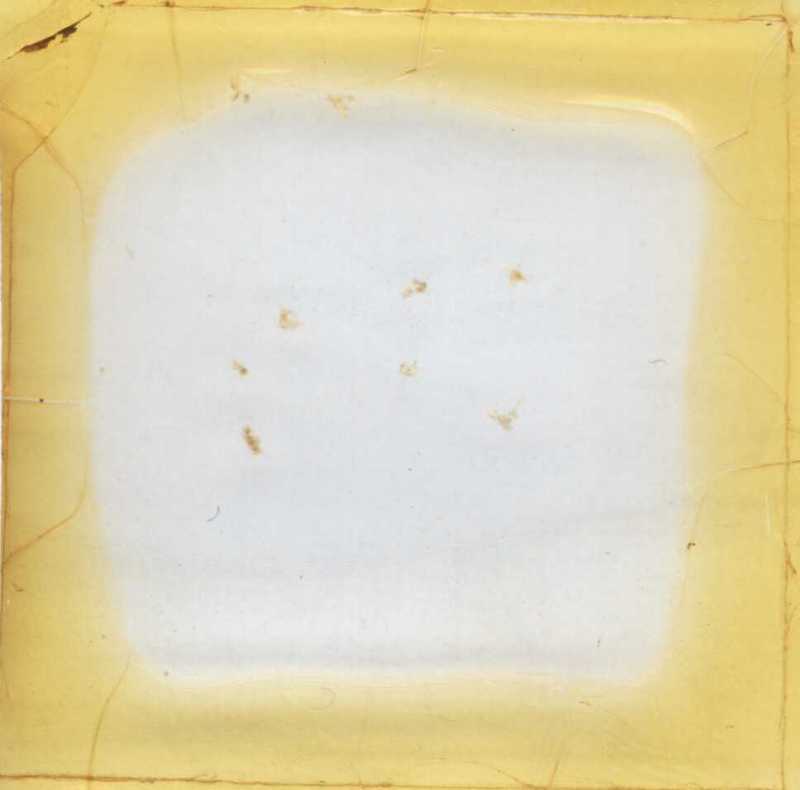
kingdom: Animalia
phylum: Arthropoda
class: Diplopoda
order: Polyxenida
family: Polyxenidae
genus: Polyxenus
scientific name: Polyxenus lagurus
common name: Bristly millipede
